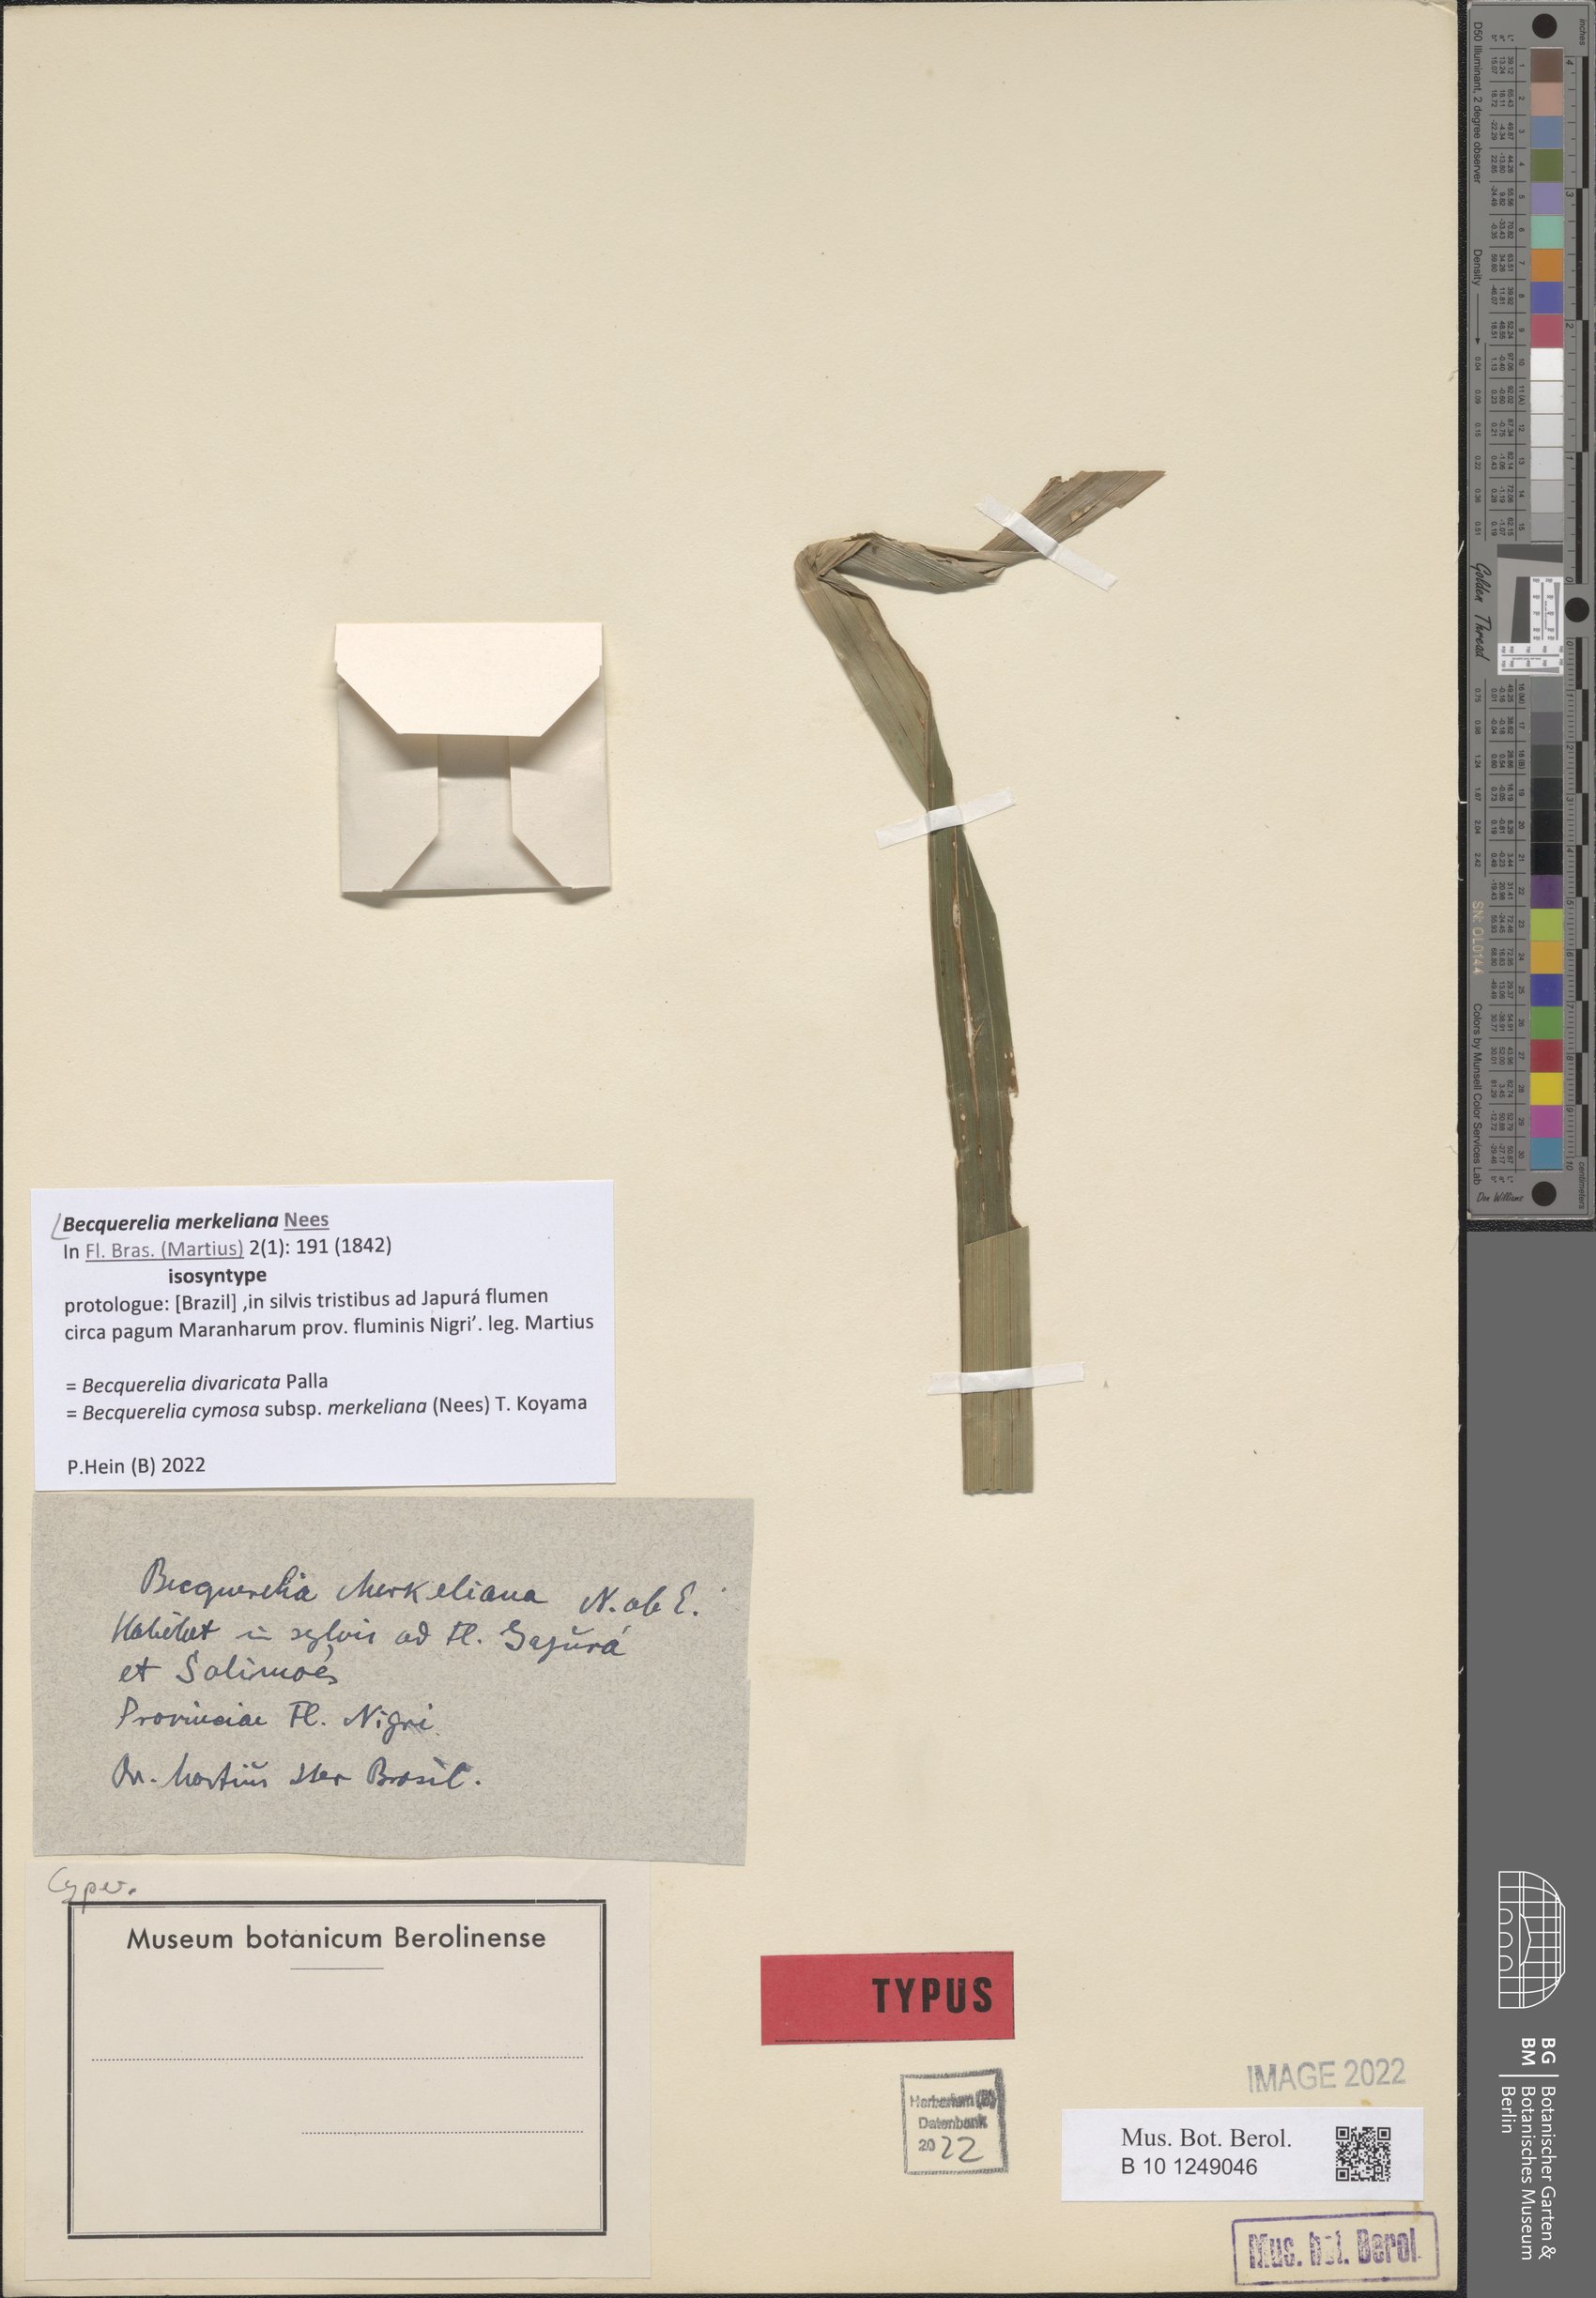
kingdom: Plantae
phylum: Tracheophyta
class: Liliopsida
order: Poales
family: Cyperaceae
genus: Becquerelia
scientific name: Becquerelia merkeliana
